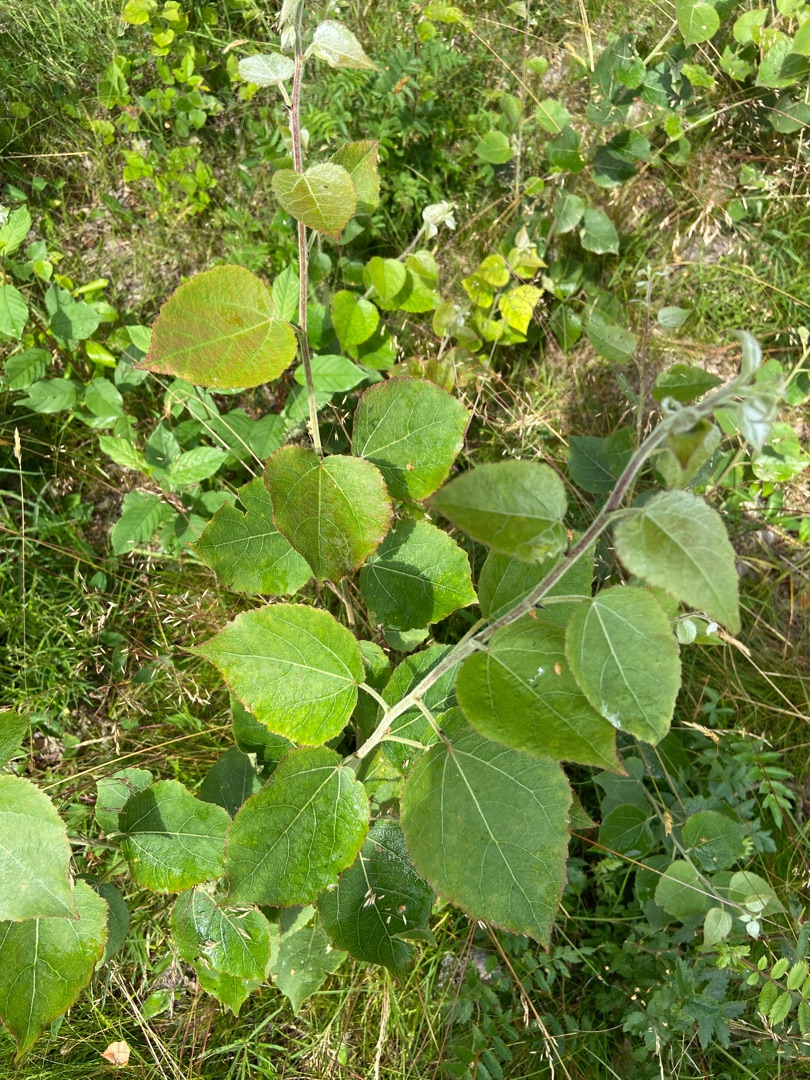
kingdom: Plantae
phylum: Tracheophyta
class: Magnoliopsida
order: Malpighiales
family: Salicaceae
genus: Populus
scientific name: Populus jackii
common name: Ontarisk poppel
